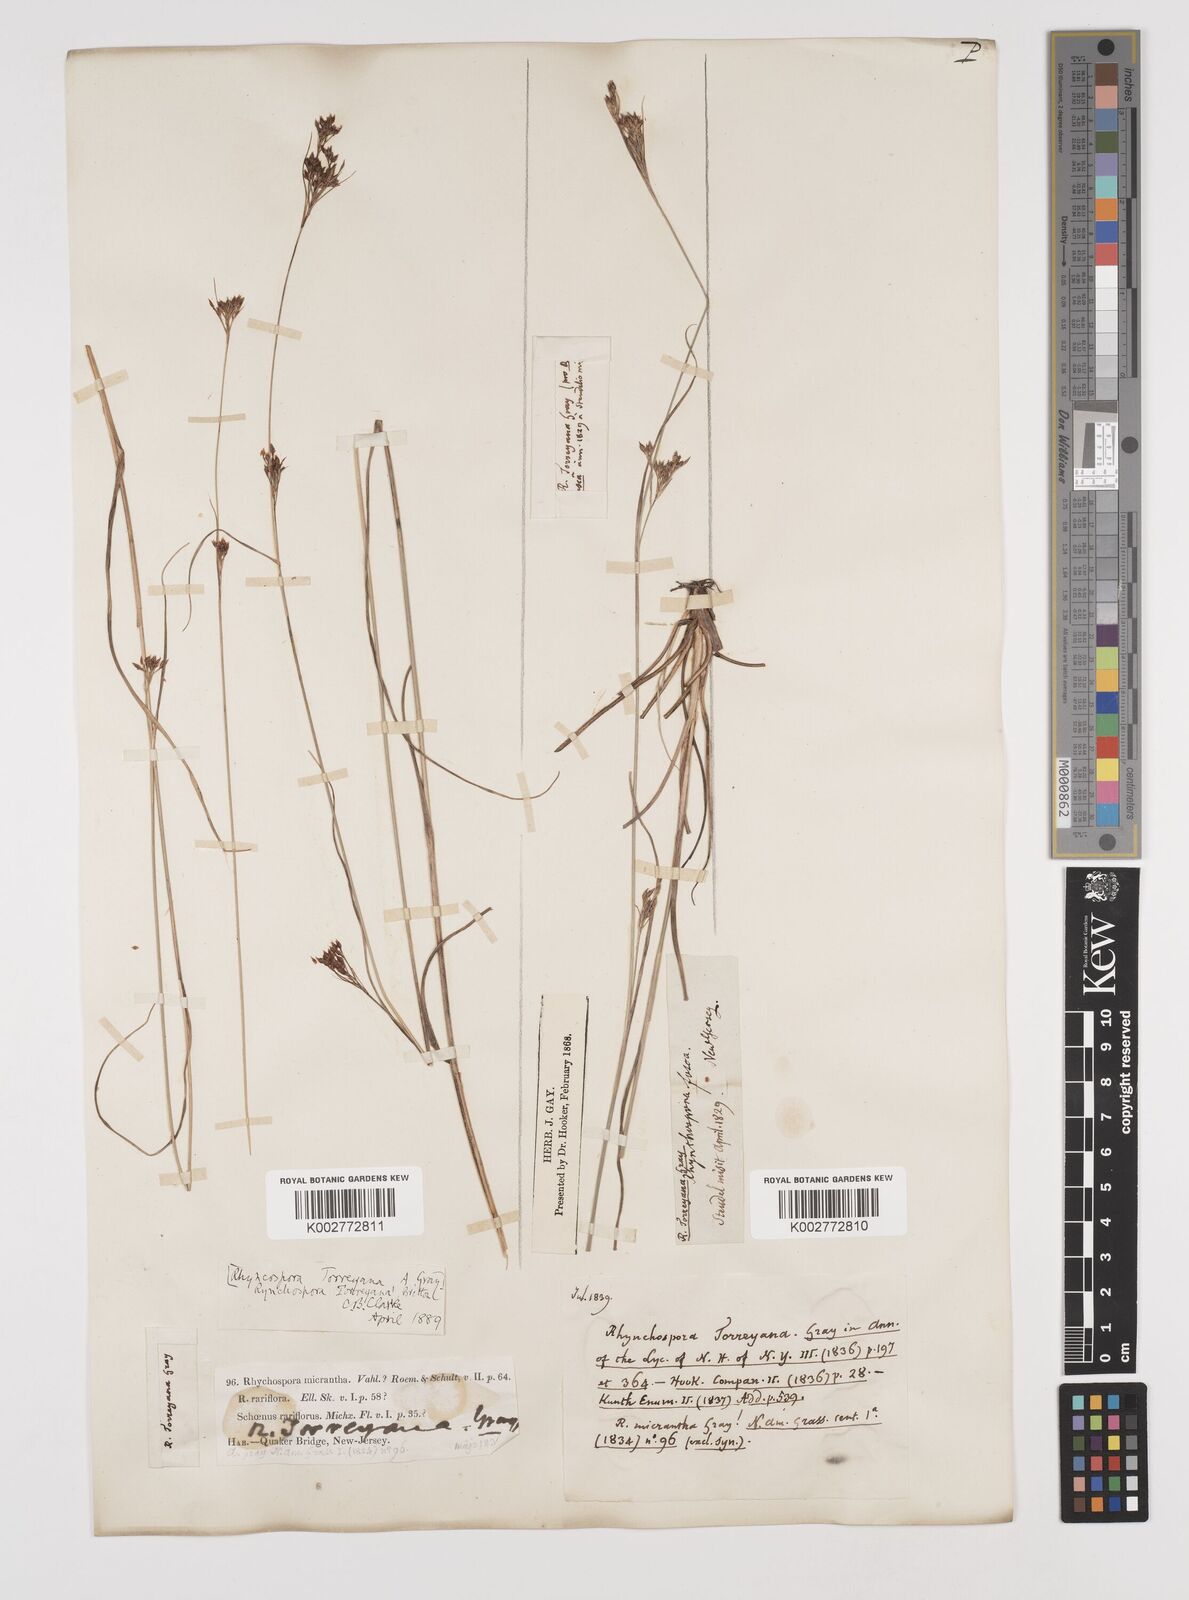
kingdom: Plantae
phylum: Tracheophyta
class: Liliopsida
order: Poales
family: Cyperaceae
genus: Rhynchospora
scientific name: Rhynchospora torreyana
